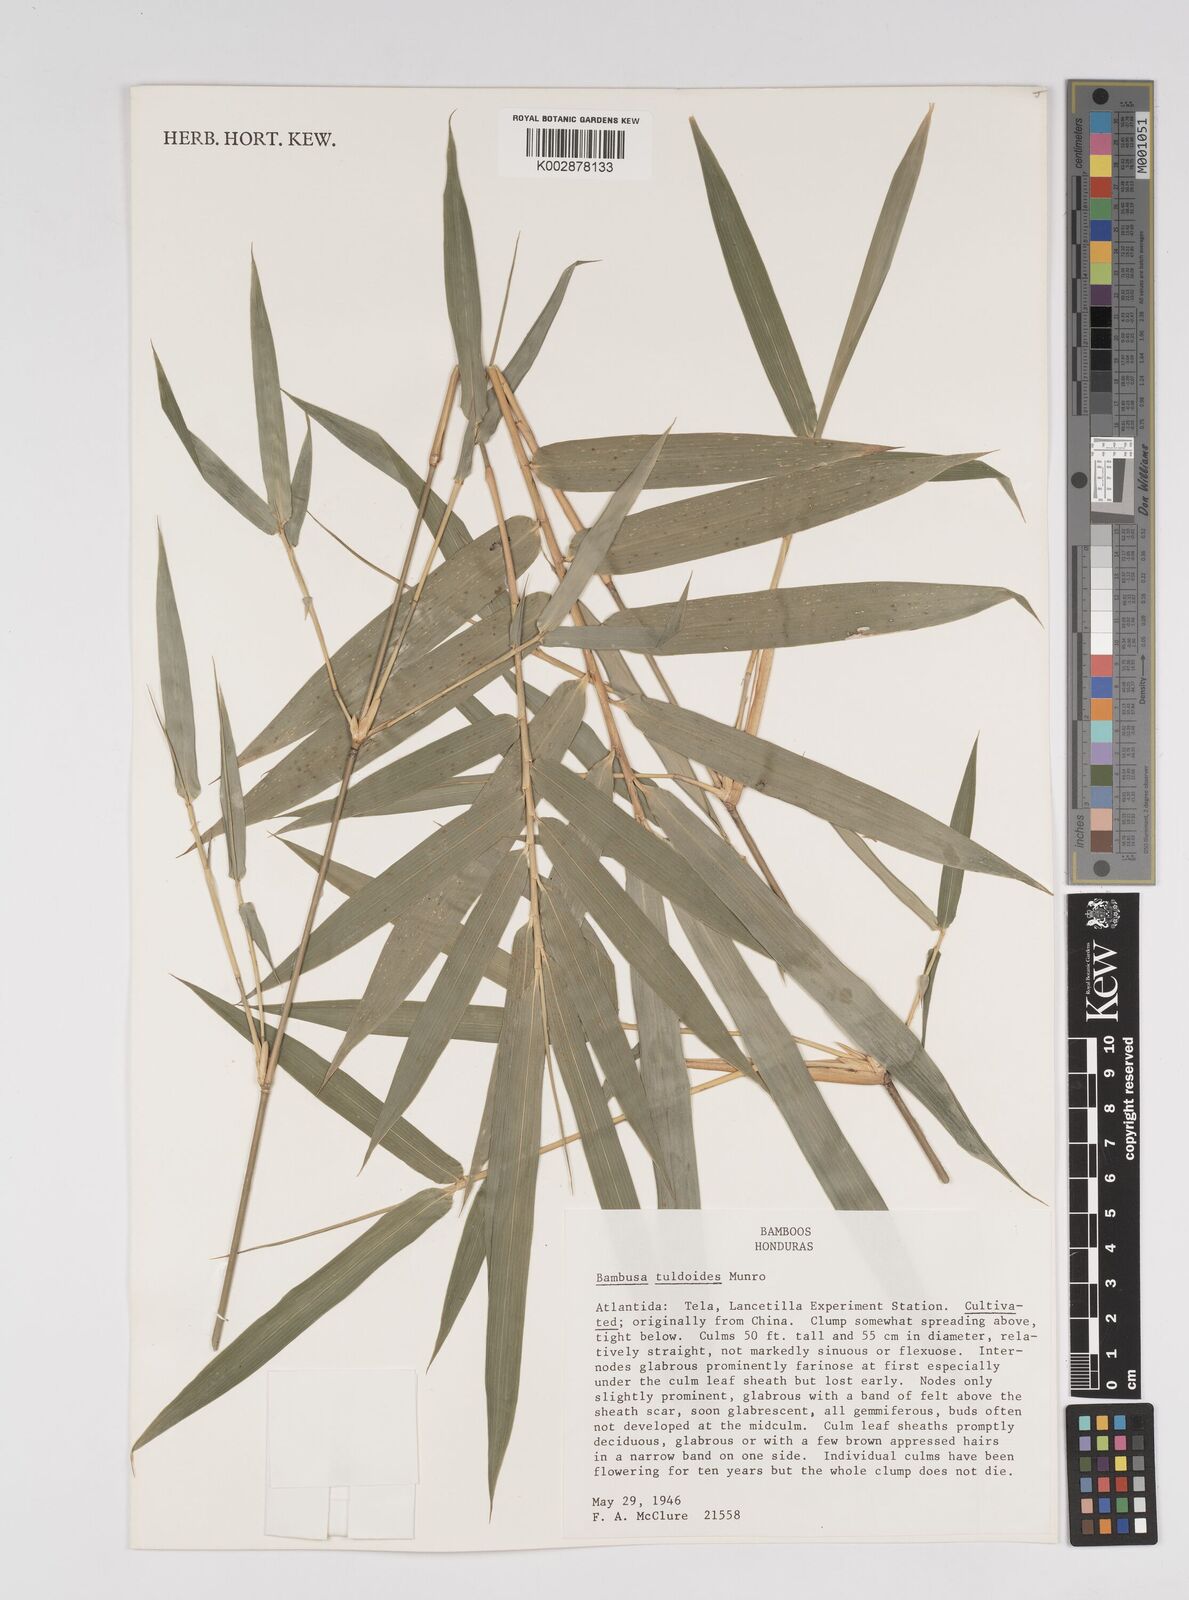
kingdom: Plantae
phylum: Tracheophyta
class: Liliopsida
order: Poales
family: Poaceae
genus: Bambusa
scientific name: Bambusa tuldoides
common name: Verdant bamboo
